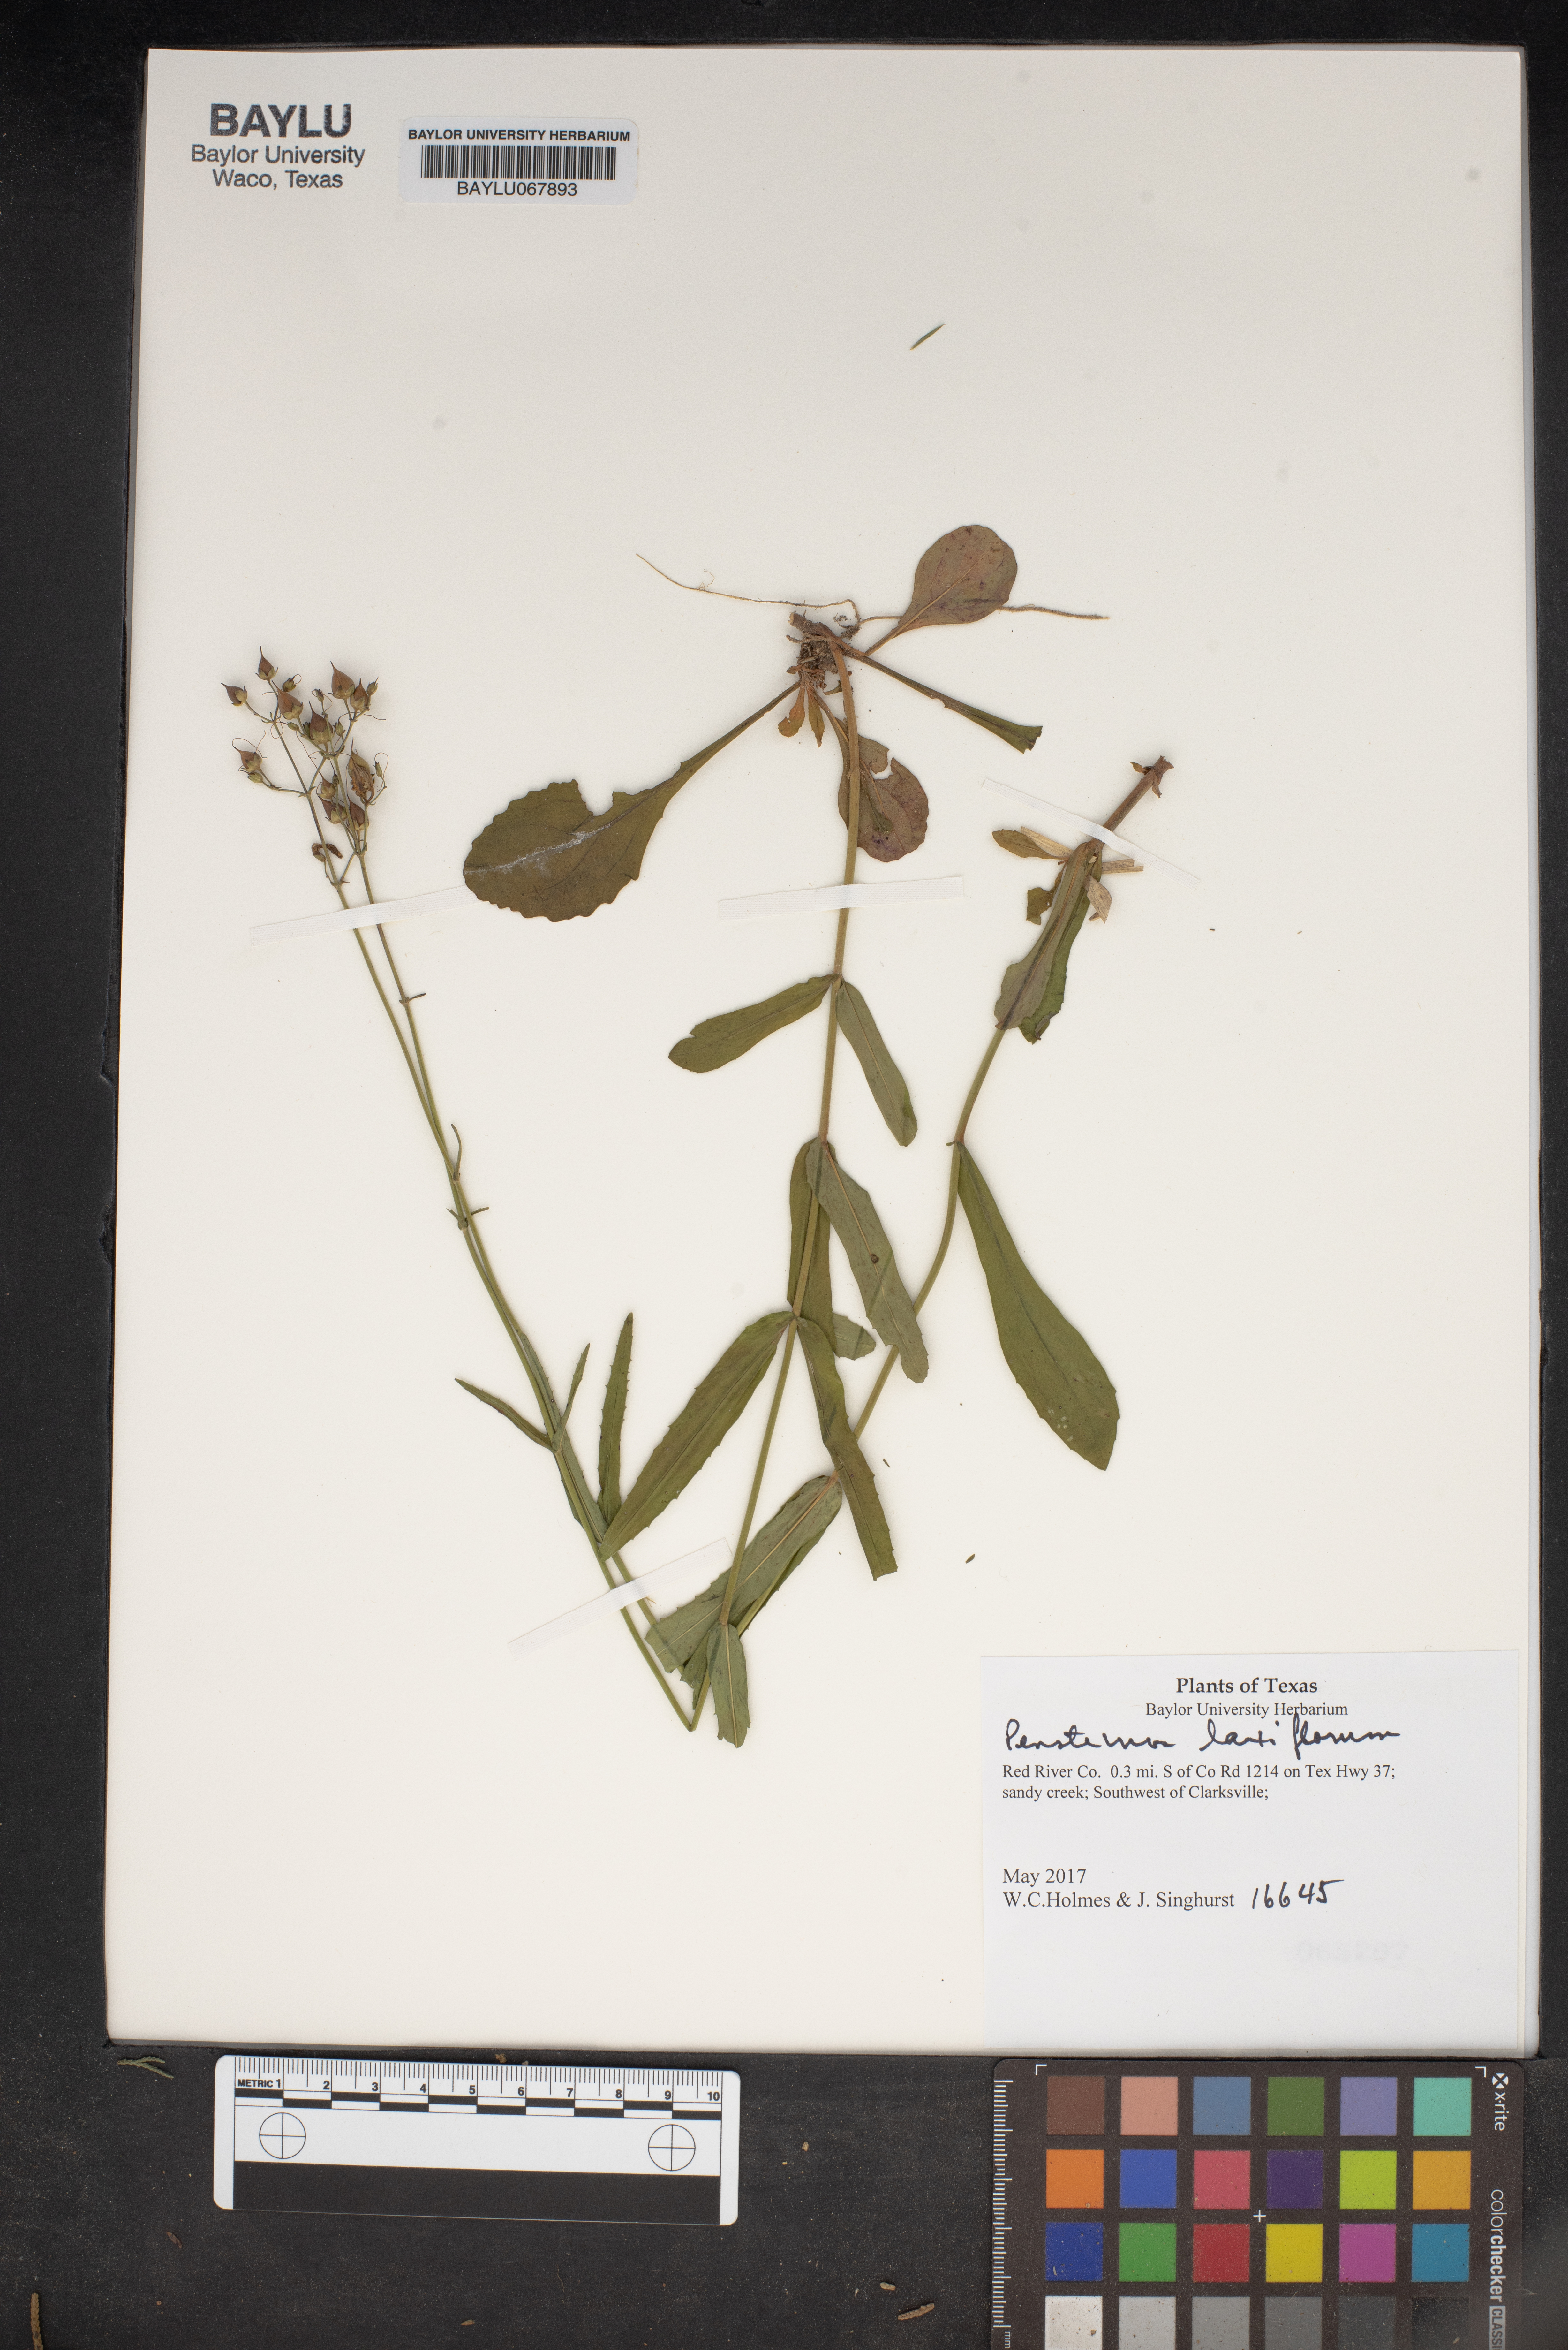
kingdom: Plantae
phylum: Tracheophyta
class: Magnoliopsida
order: Lamiales
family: Plantaginaceae
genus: Penstemon
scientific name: Penstemon laxiflorus
